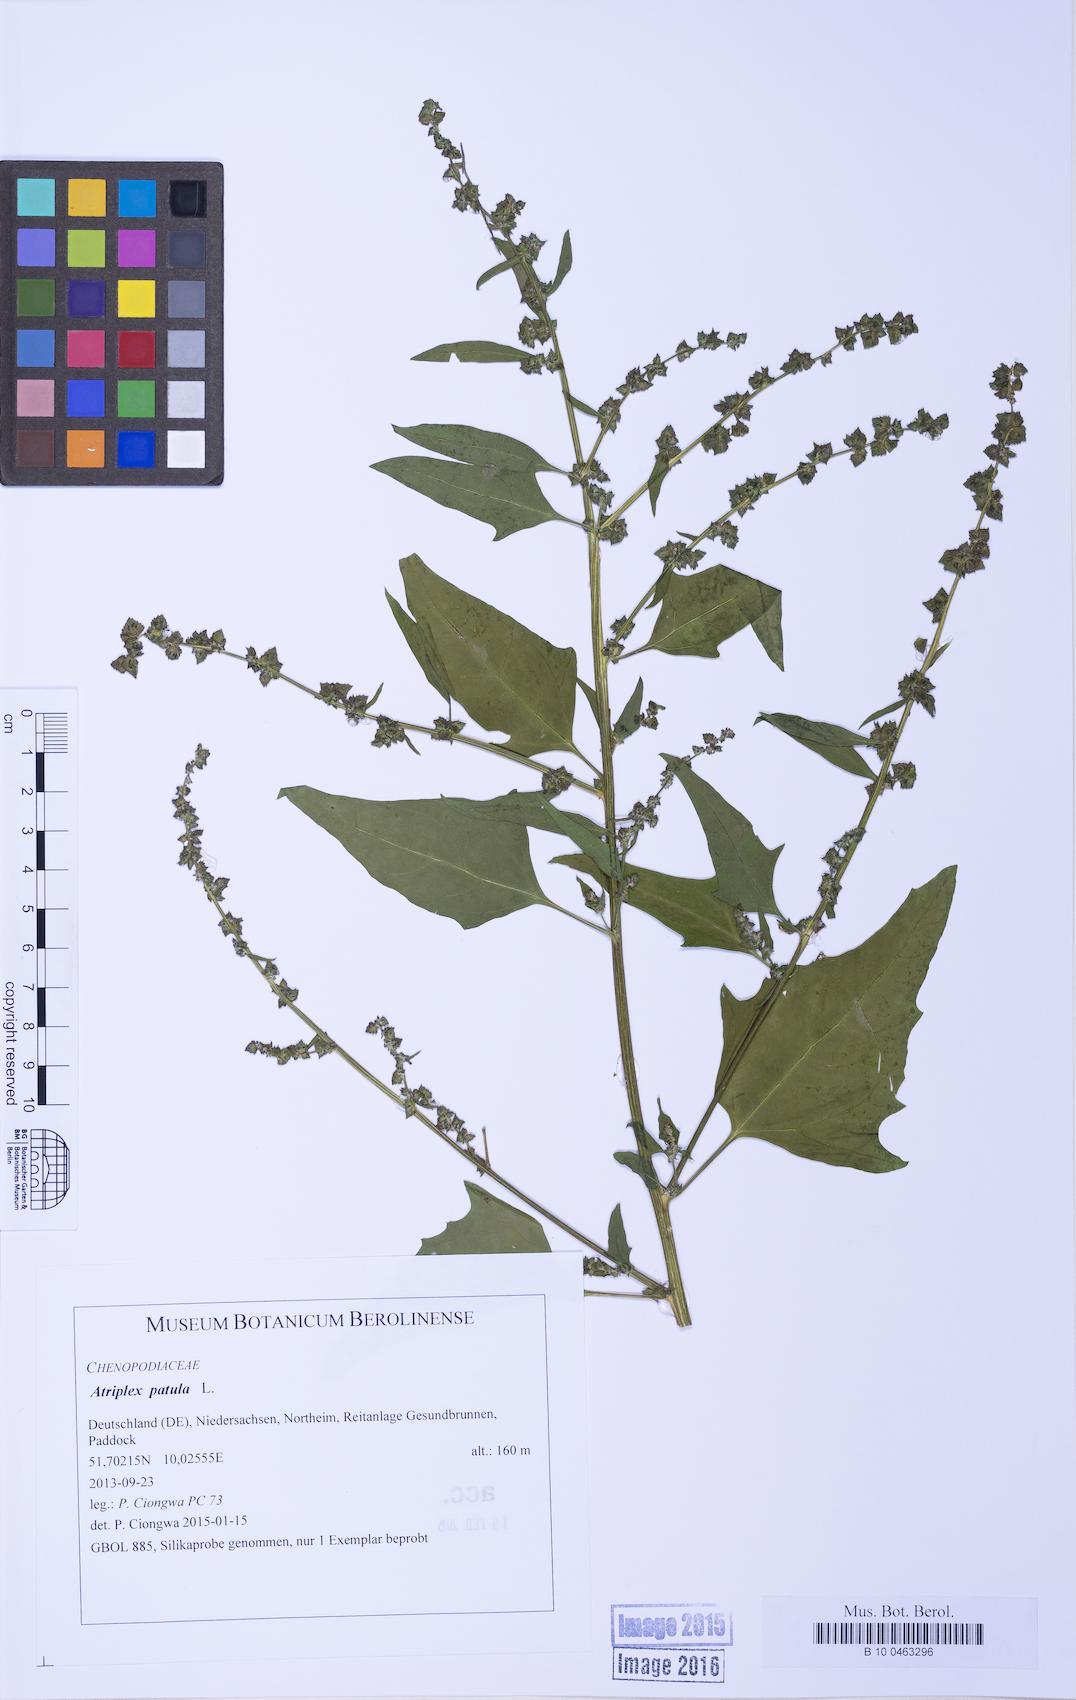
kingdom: Plantae
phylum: Tracheophyta
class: Magnoliopsida
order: Caryophyllales
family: Amaranthaceae
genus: Atriplex
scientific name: Atriplex patula
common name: Common orache
